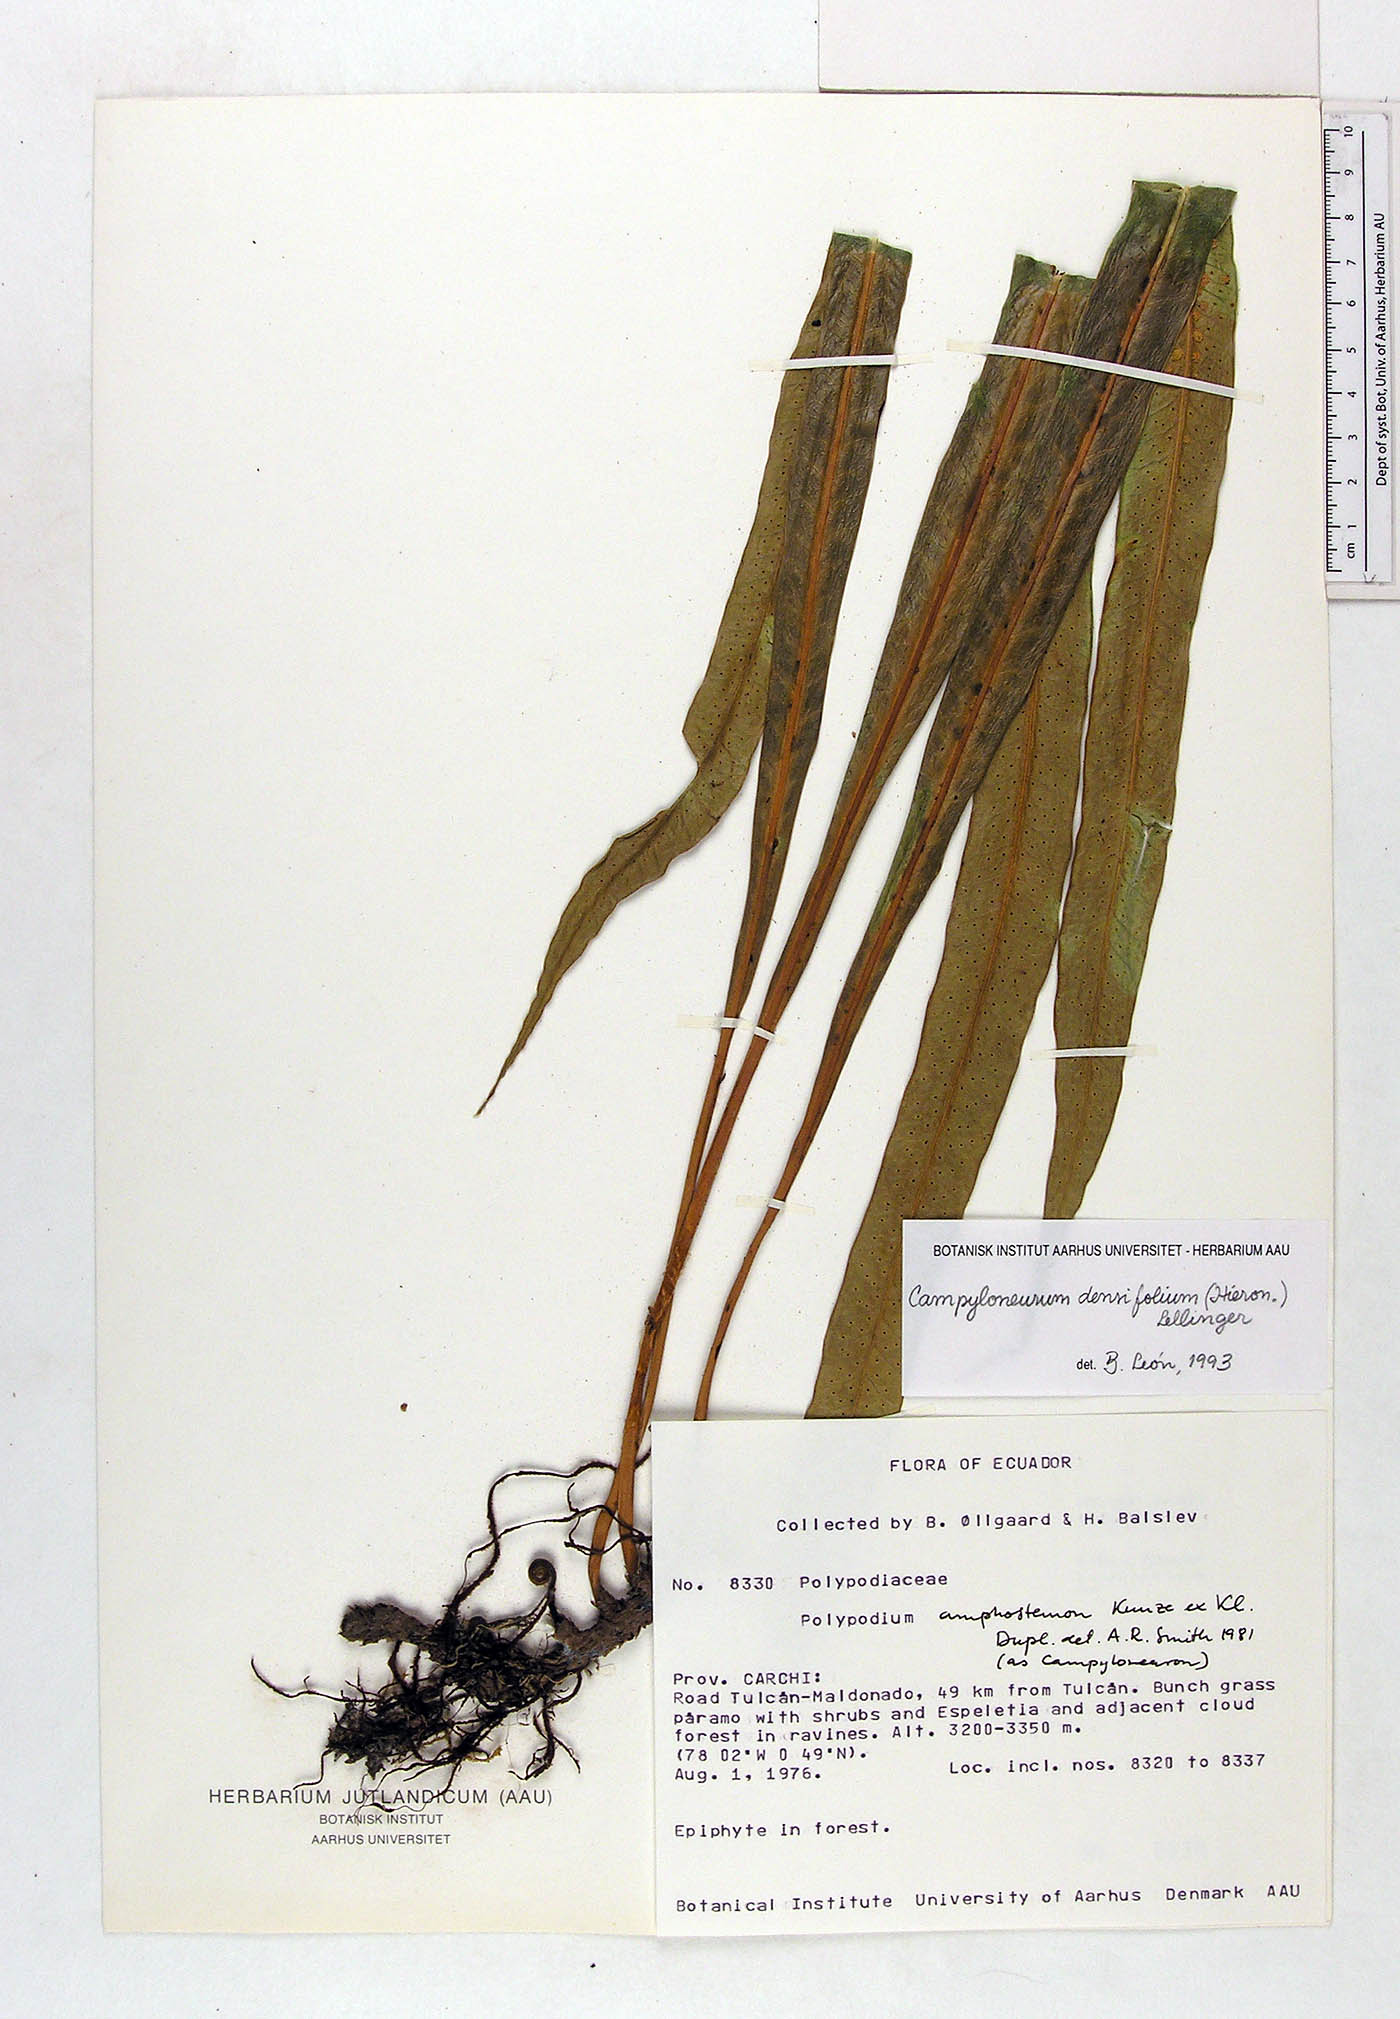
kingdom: Plantae
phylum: Tracheophyta
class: Polypodiopsida
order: Polypodiales
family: Polypodiaceae
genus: Campyloneurum
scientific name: Campyloneurum densifolium
